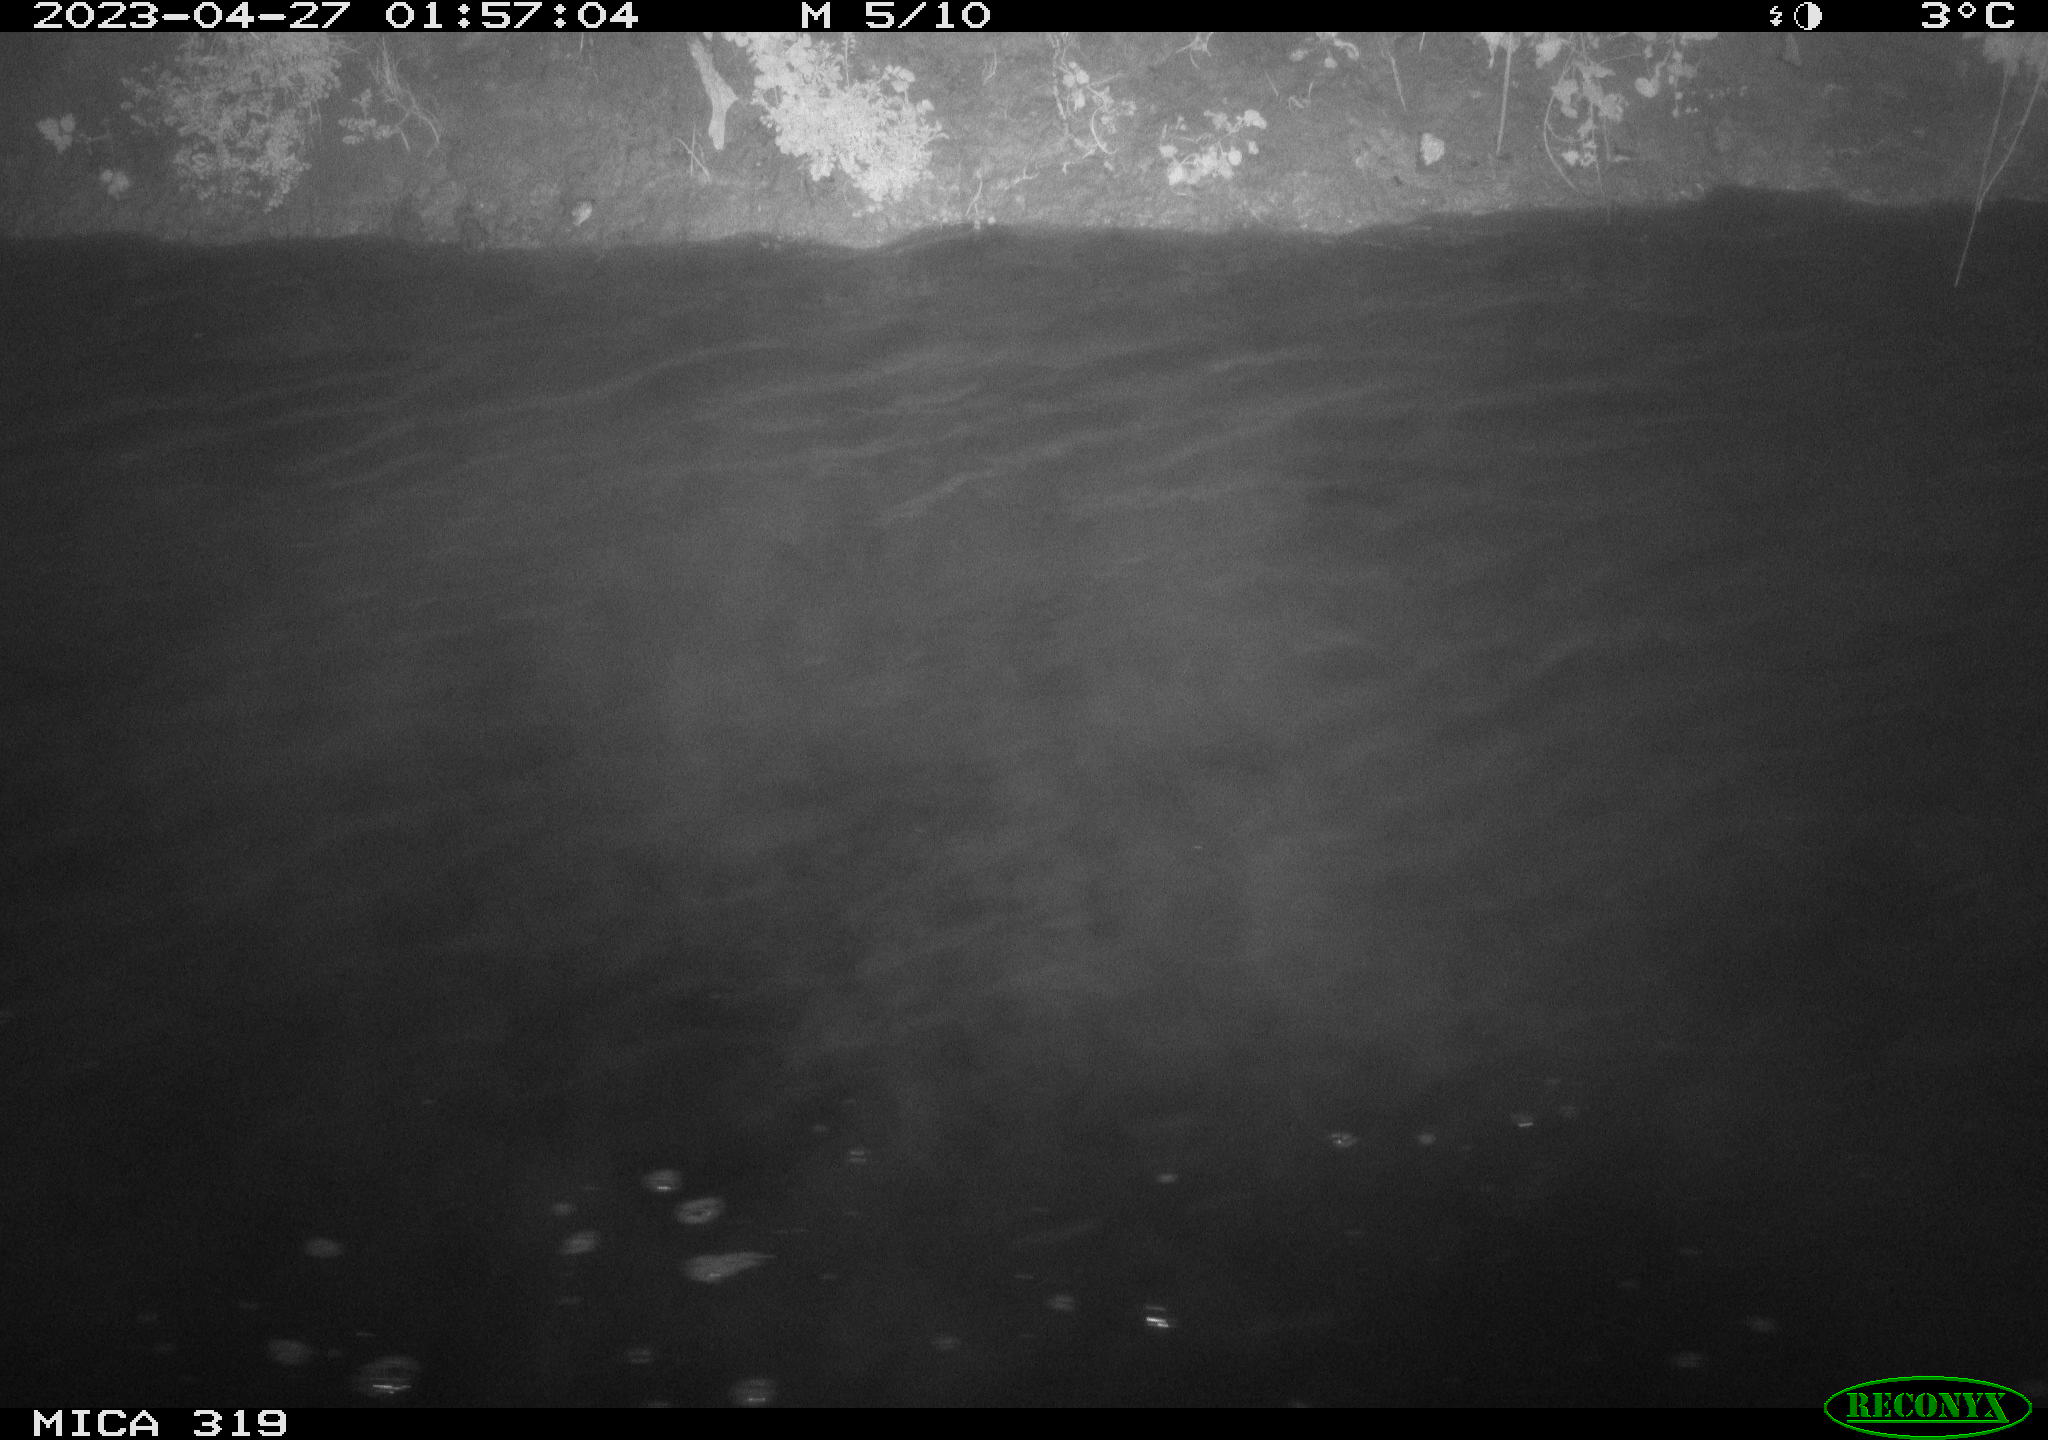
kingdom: Animalia
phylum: Chordata
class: Aves
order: Anseriformes
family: Anatidae
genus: Anas
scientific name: Anas
